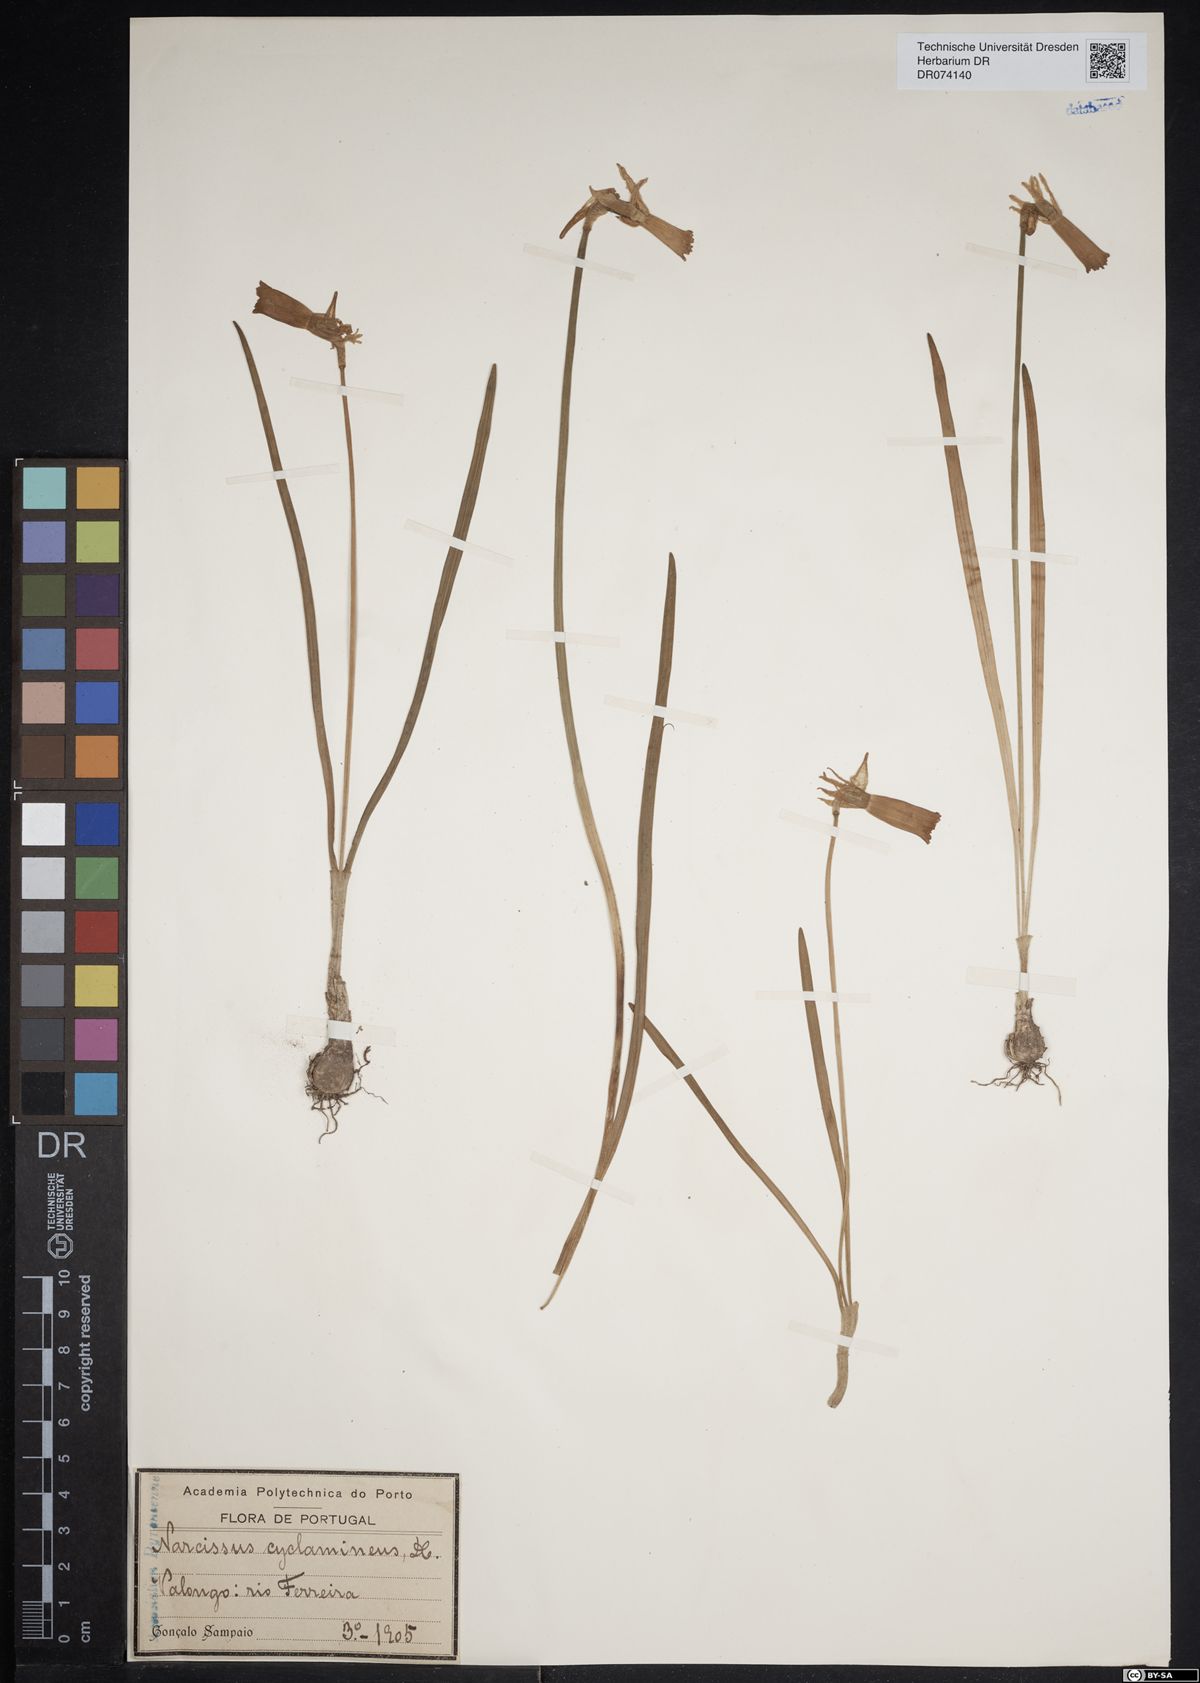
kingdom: Plantae
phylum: Tracheophyta
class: Liliopsida
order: Asparagales
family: Amaryllidaceae
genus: Narcissus
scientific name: Narcissus cyclamineus
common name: Cyclamen-flowered daffodil
